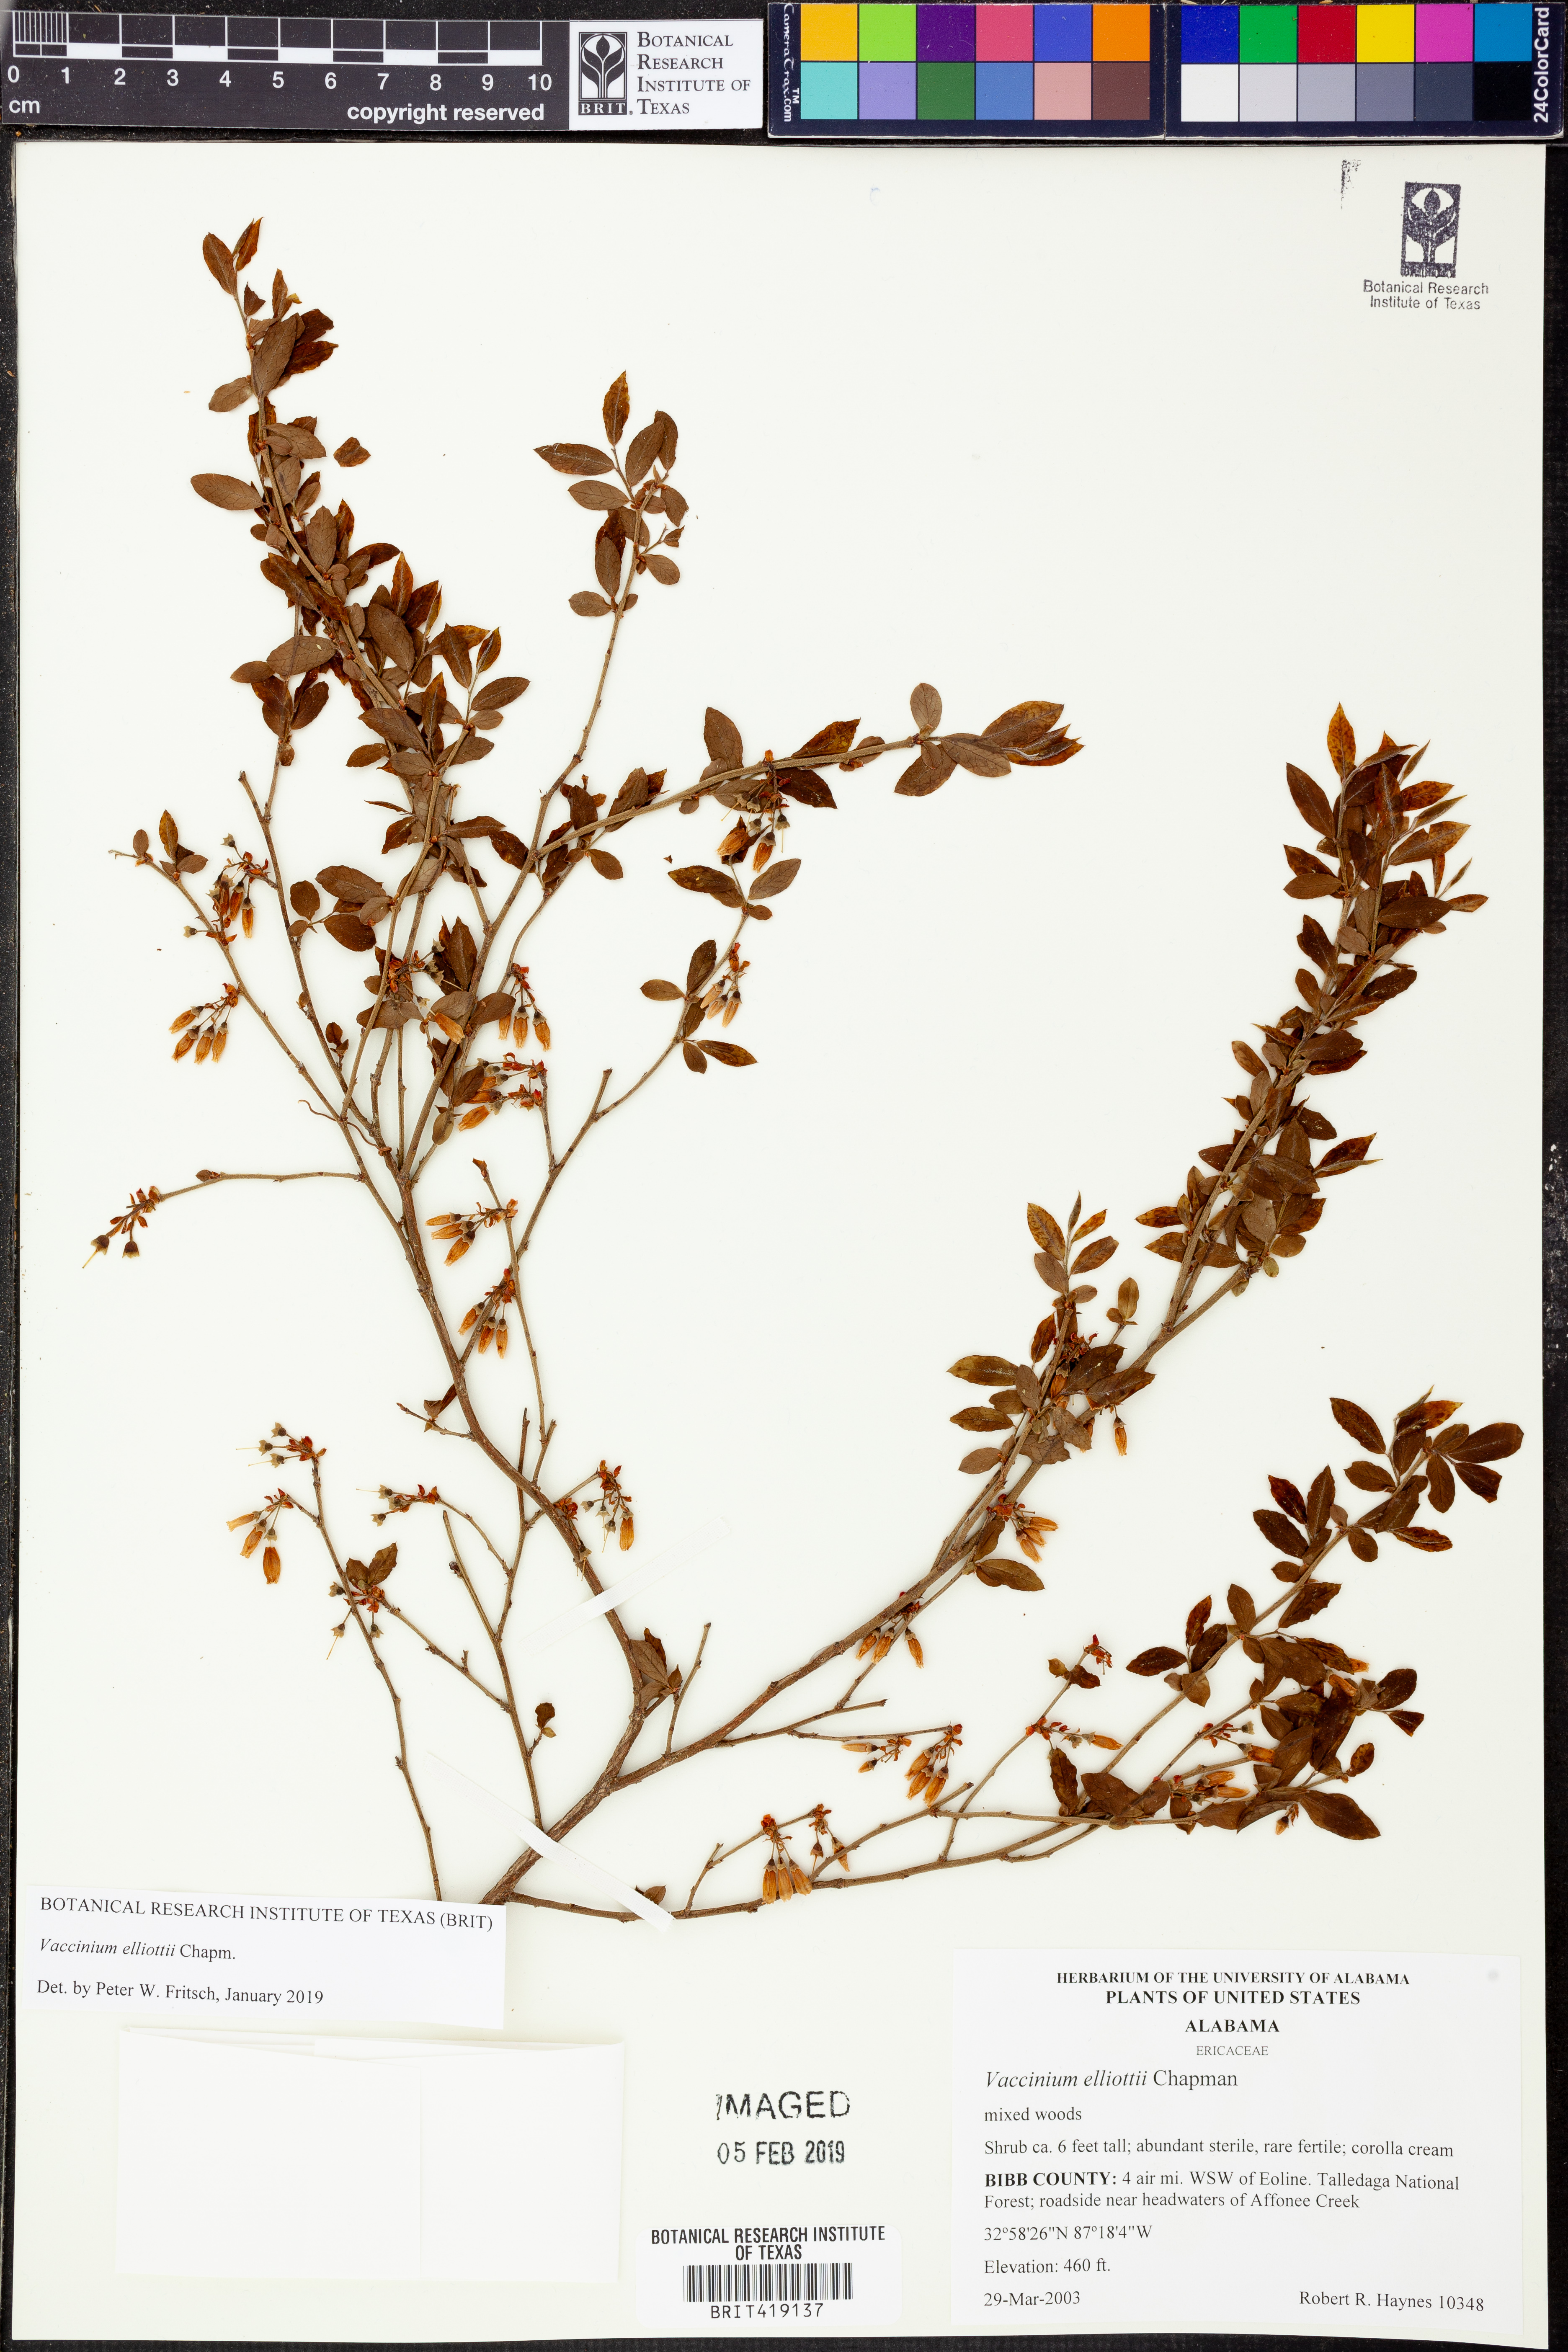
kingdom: Plantae
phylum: Tracheophyta
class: Magnoliopsida
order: Ericales
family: Ericaceae
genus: Vaccinium
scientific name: Vaccinium corymbosum
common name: Blueberry
